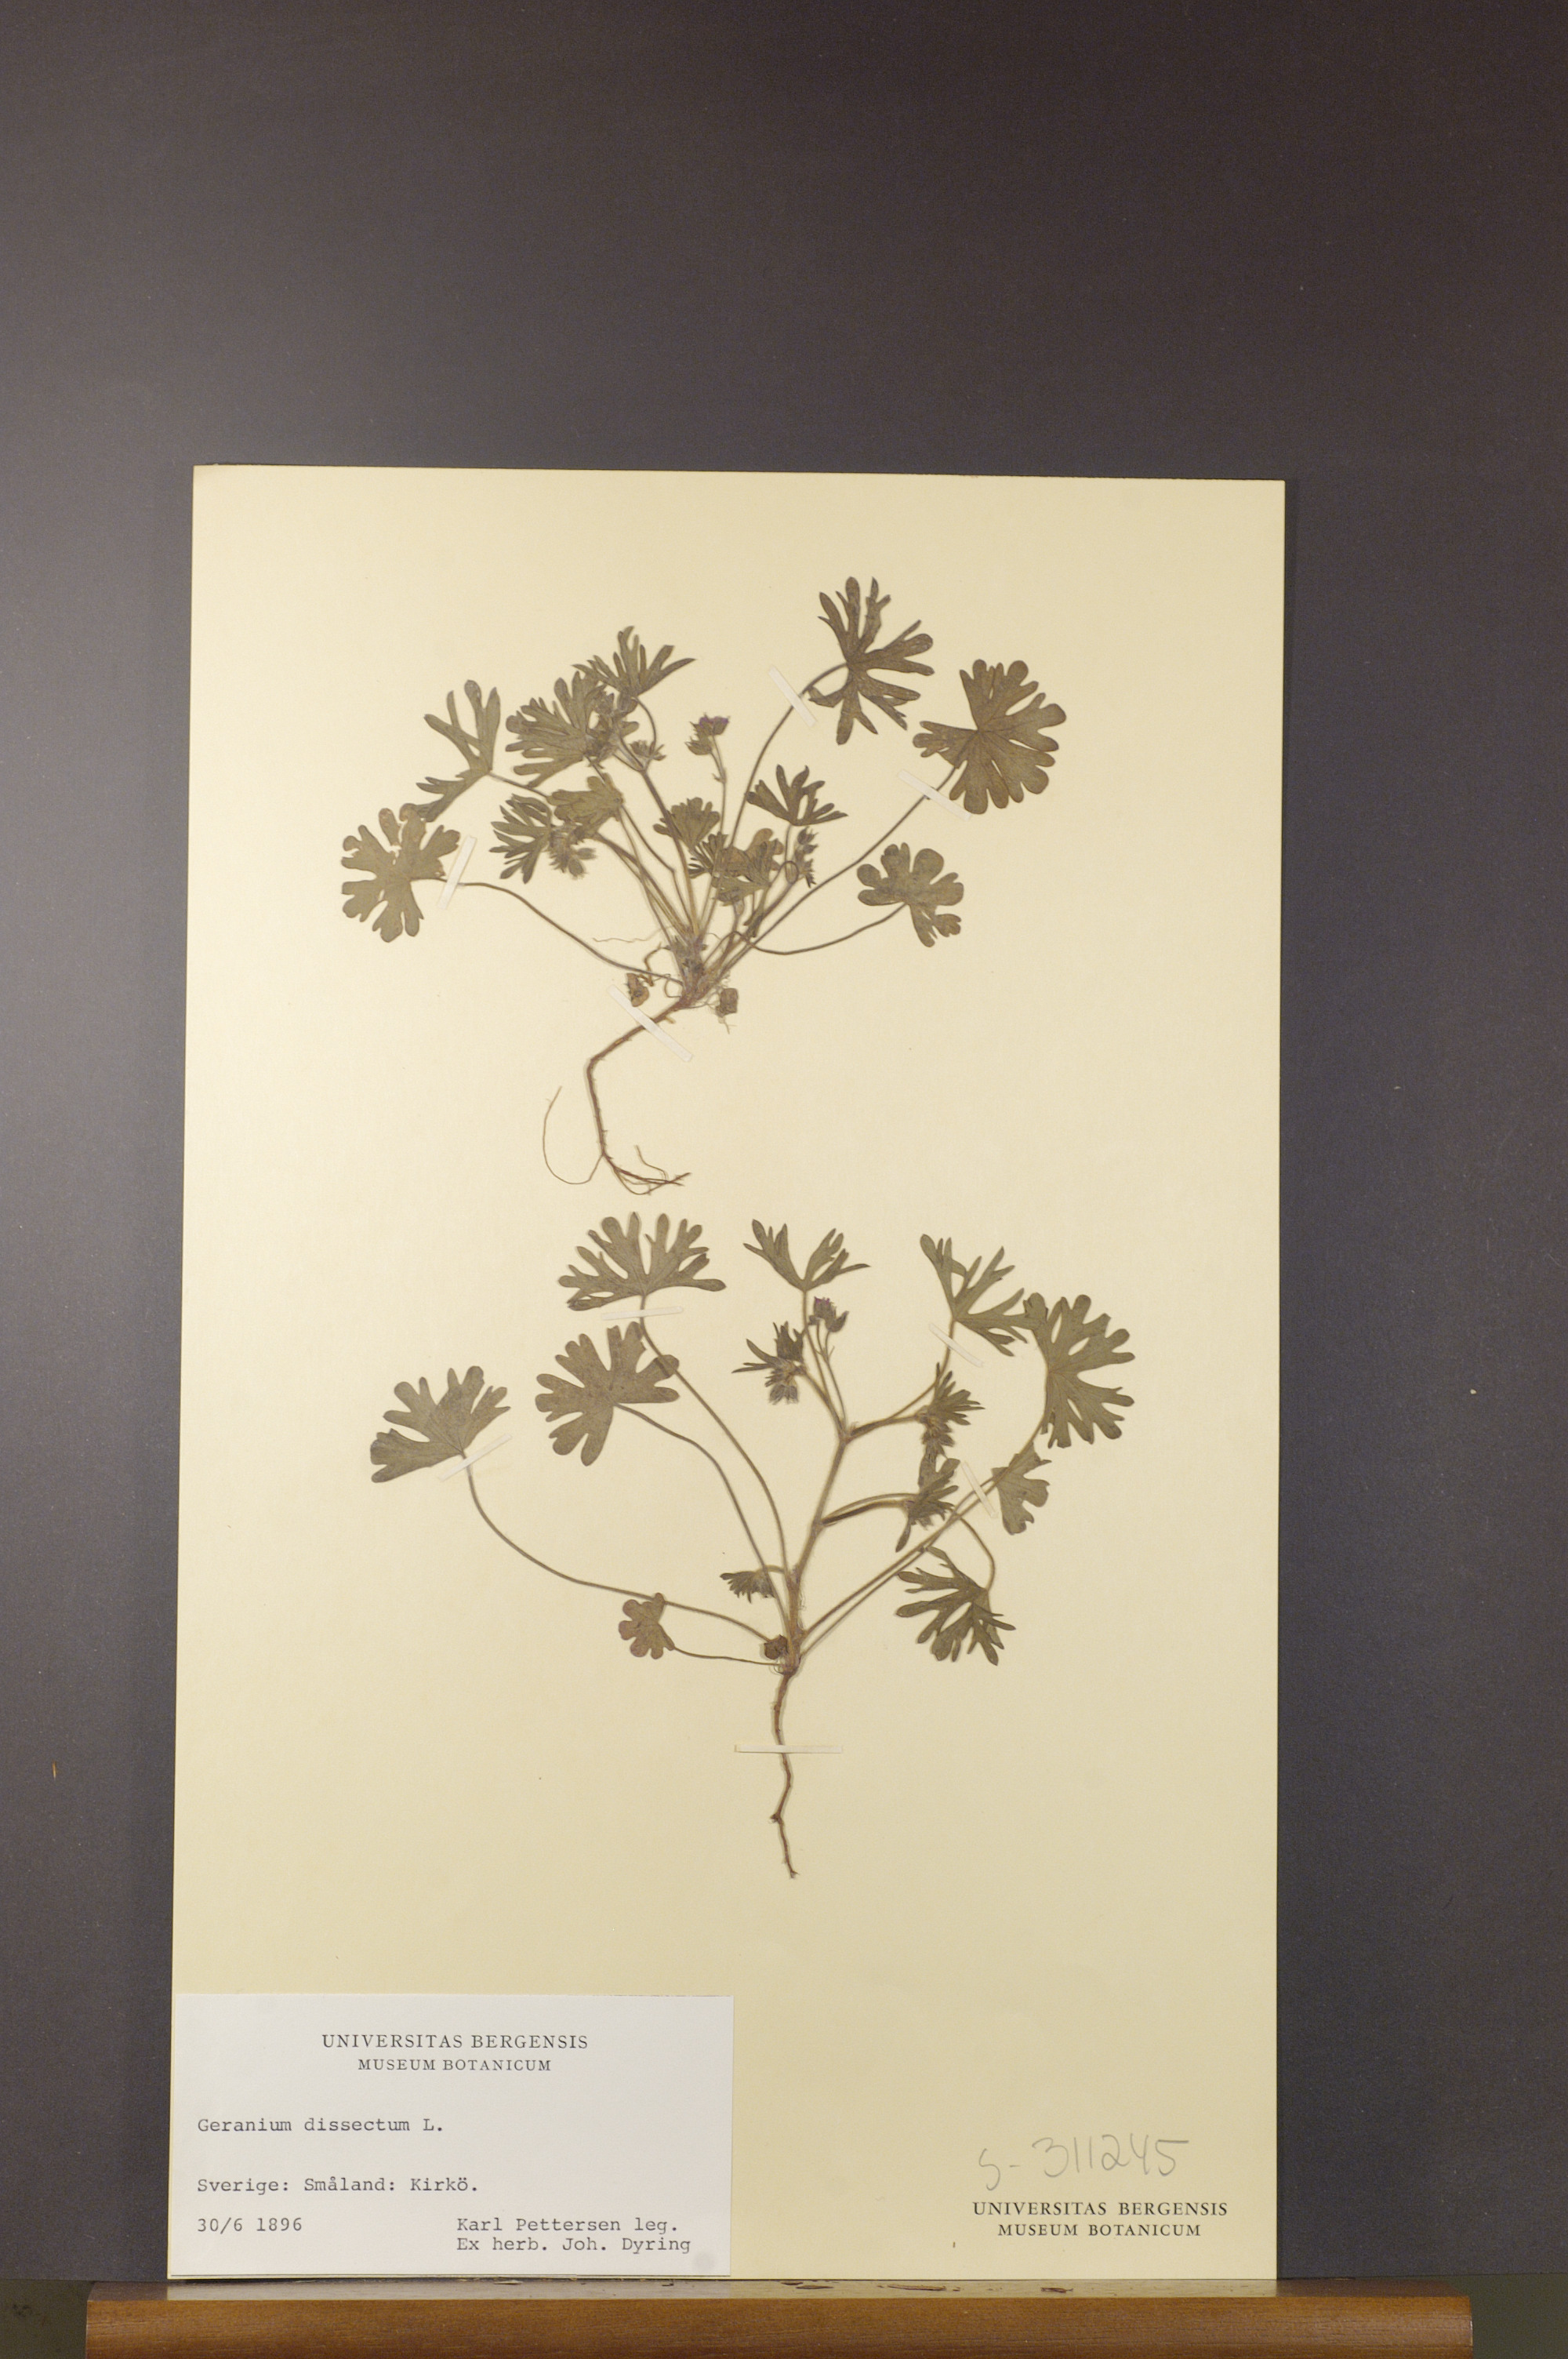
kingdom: Plantae
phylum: Tracheophyta
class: Magnoliopsida
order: Geraniales
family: Geraniaceae
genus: Geranium
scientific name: Geranium dissectum
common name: Cut-leaved crane's-bill
